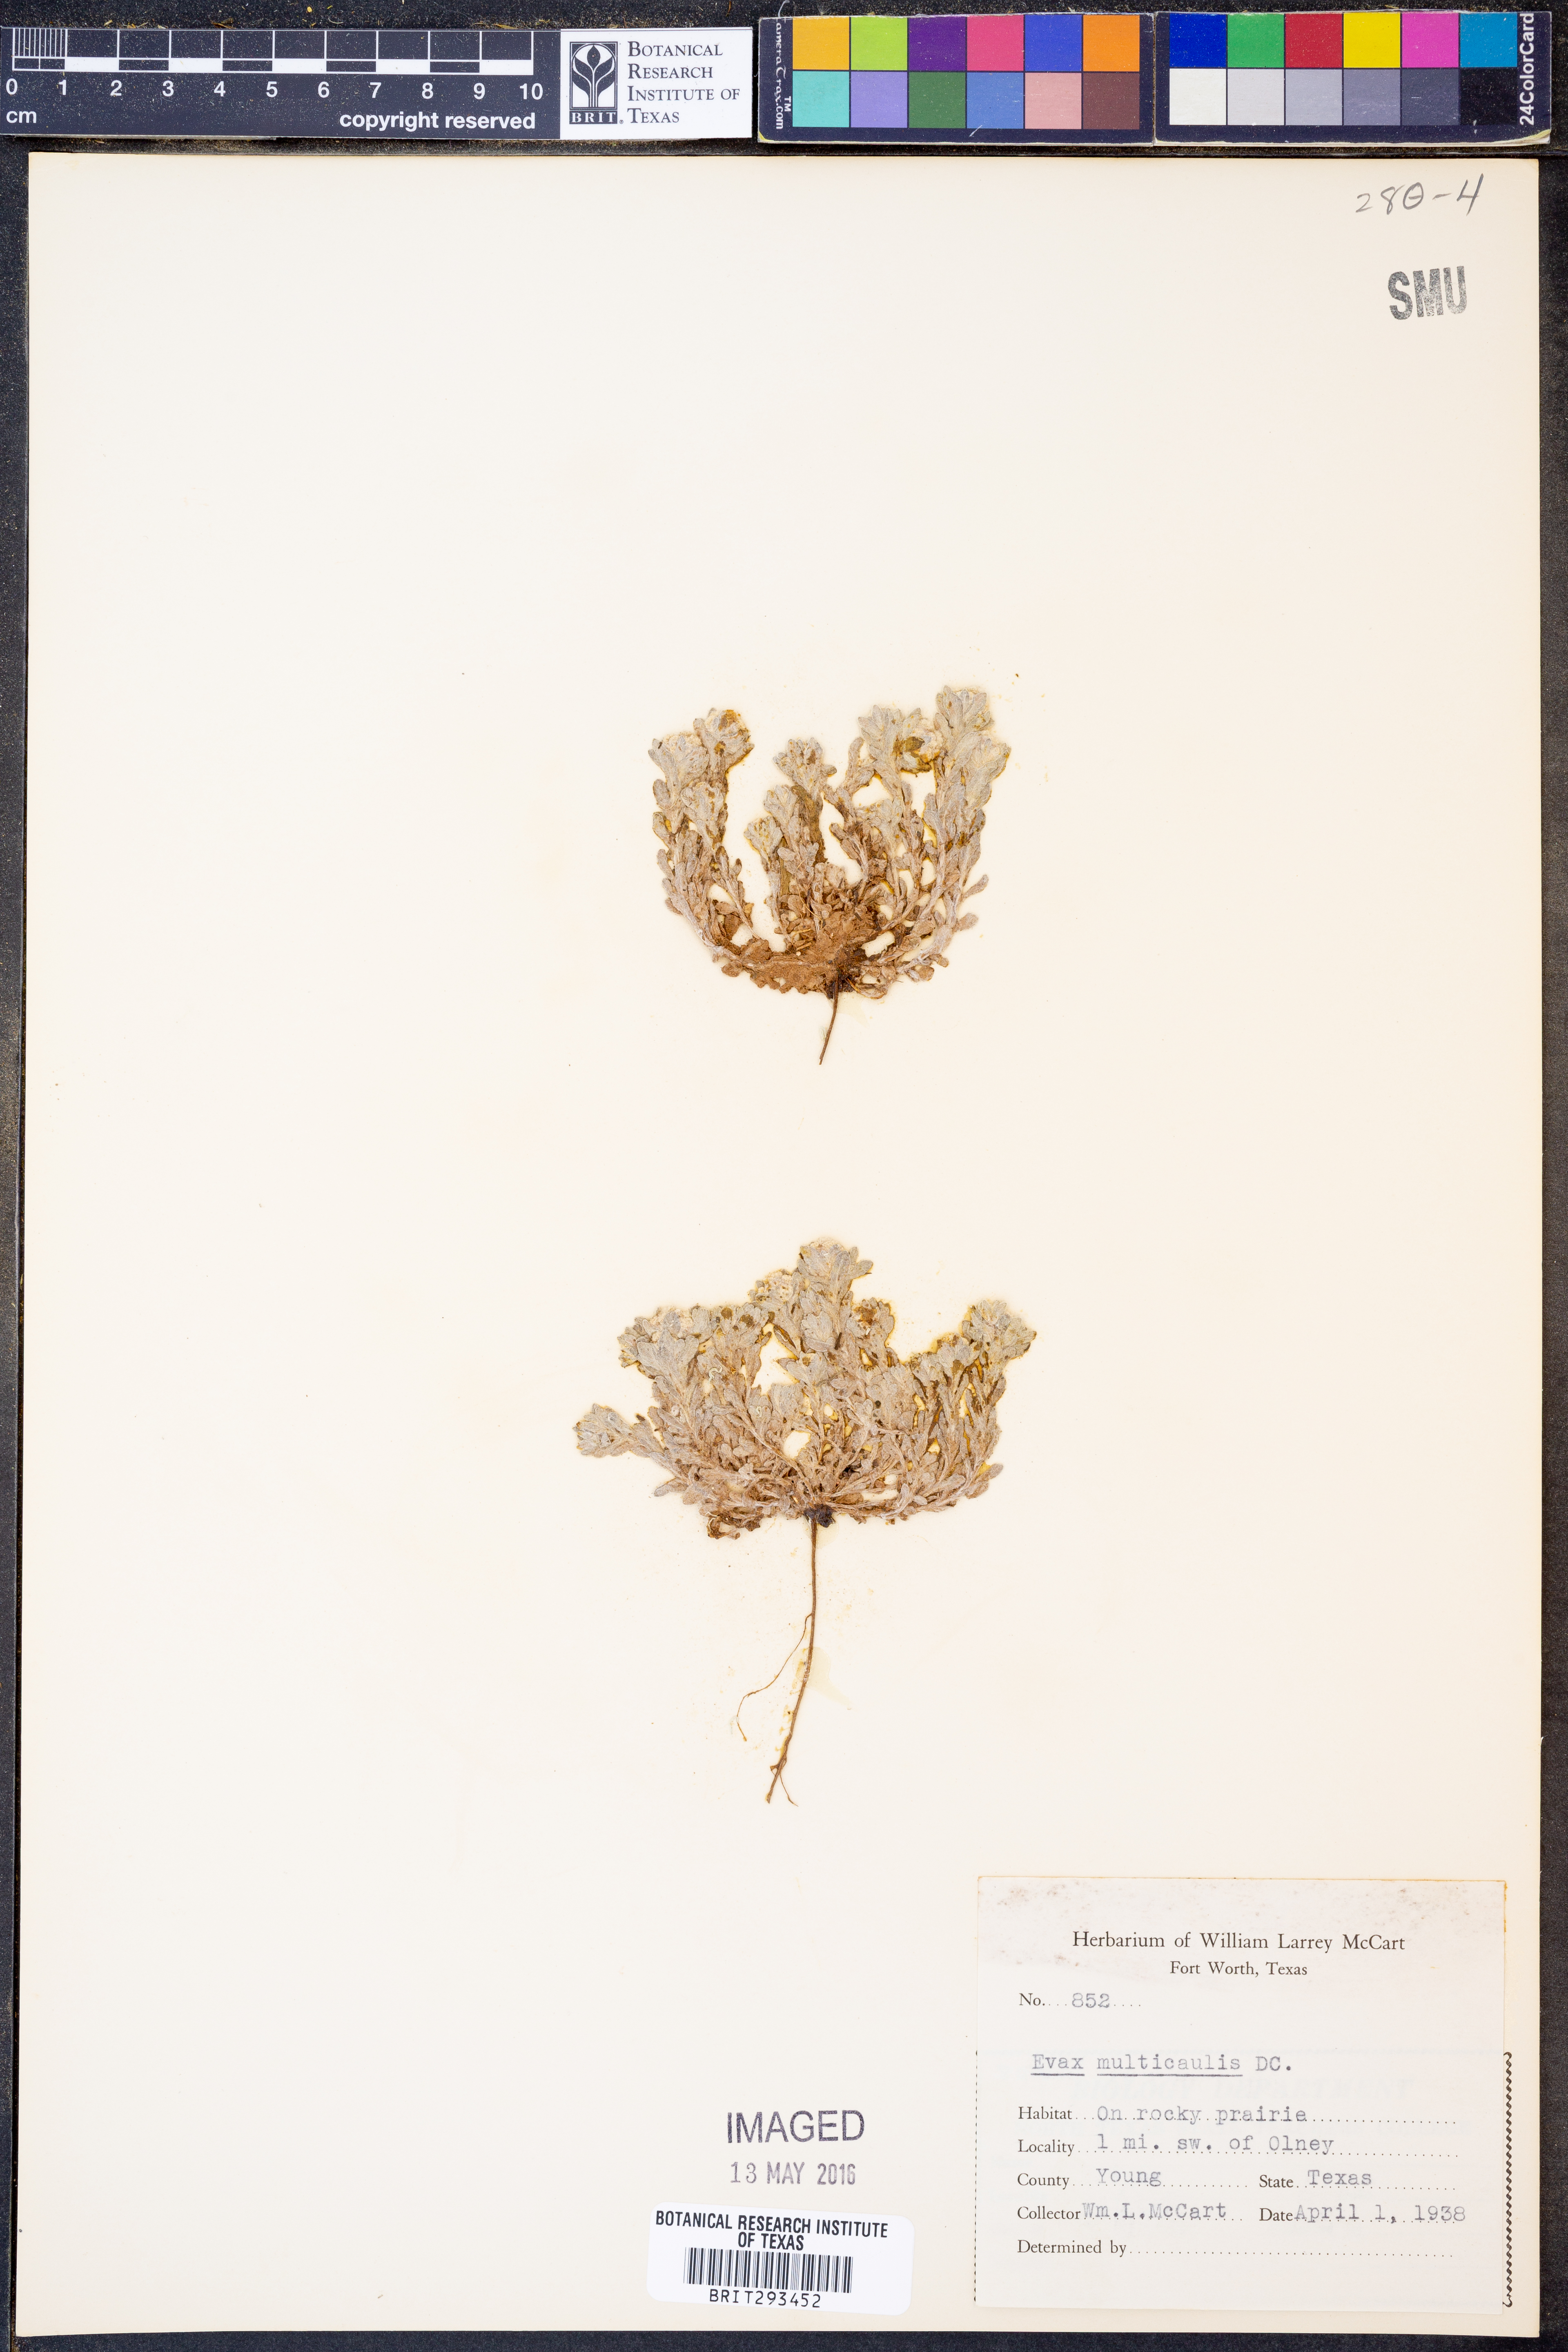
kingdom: Plantae
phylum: Tracheophyta
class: Magnoliopsida
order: Asterales
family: Asteraceae
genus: Diaperia
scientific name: Diaperia verna
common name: Many-stem rabbit-tobacco
